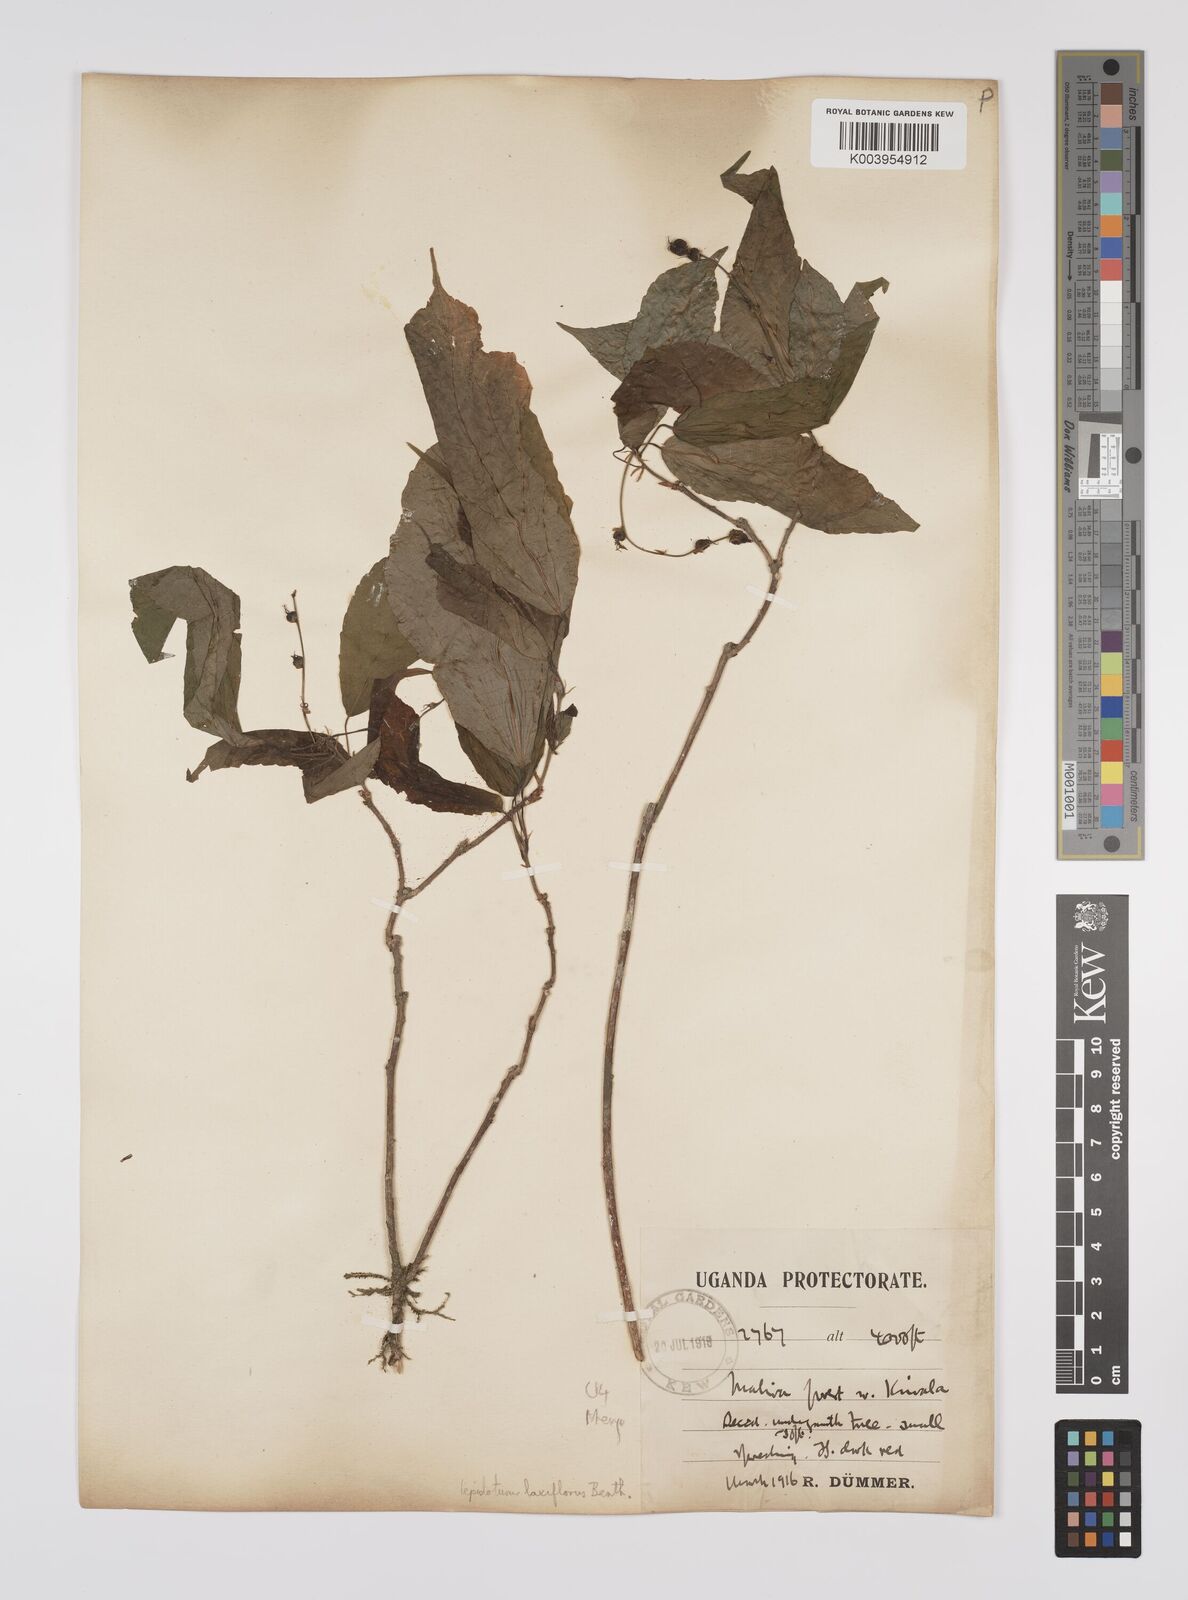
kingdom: Plantae
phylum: Tracheophyta
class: Magnoliopsida
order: Malpighiales
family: Euphorbiaceae
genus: Alchornea
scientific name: Alchornea laxiflora
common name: Lowveld bead-string
